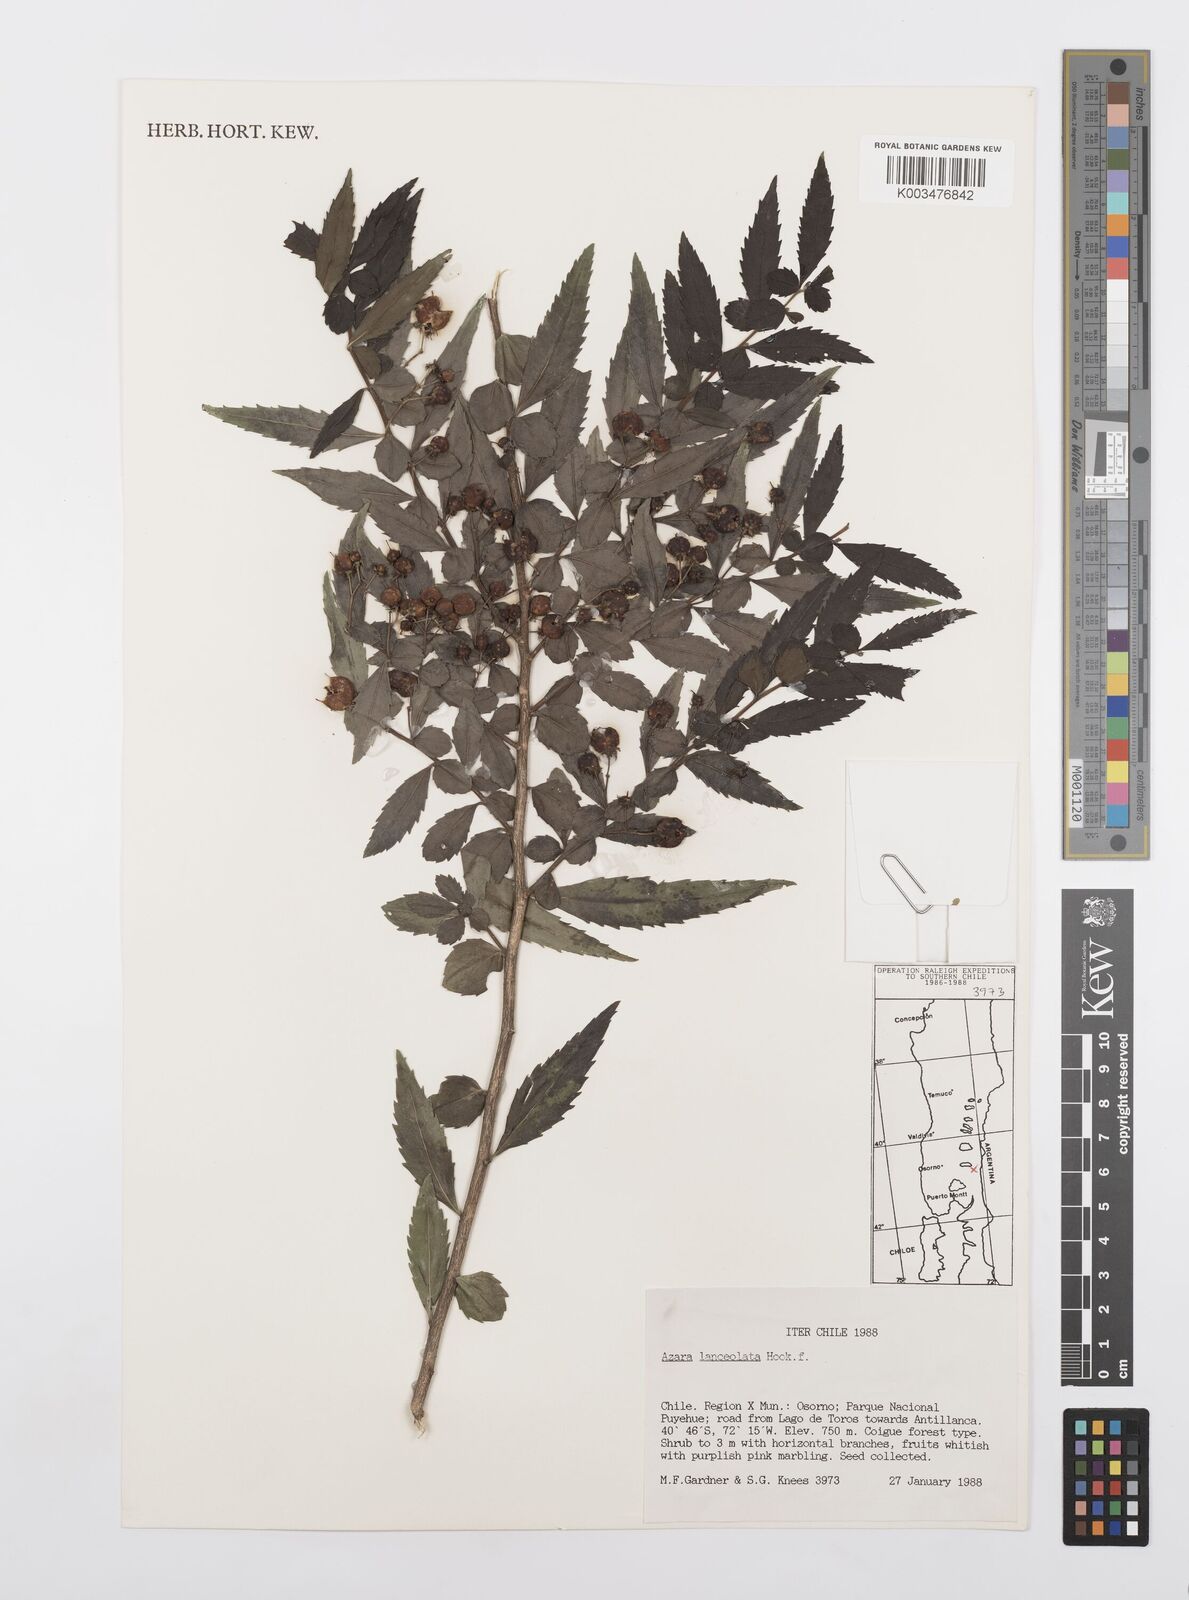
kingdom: Plantae
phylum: Tracheophyta
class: Magnoliopsida
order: Malpighiales
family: Salicaceae
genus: Azara
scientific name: Azara lanceolata
